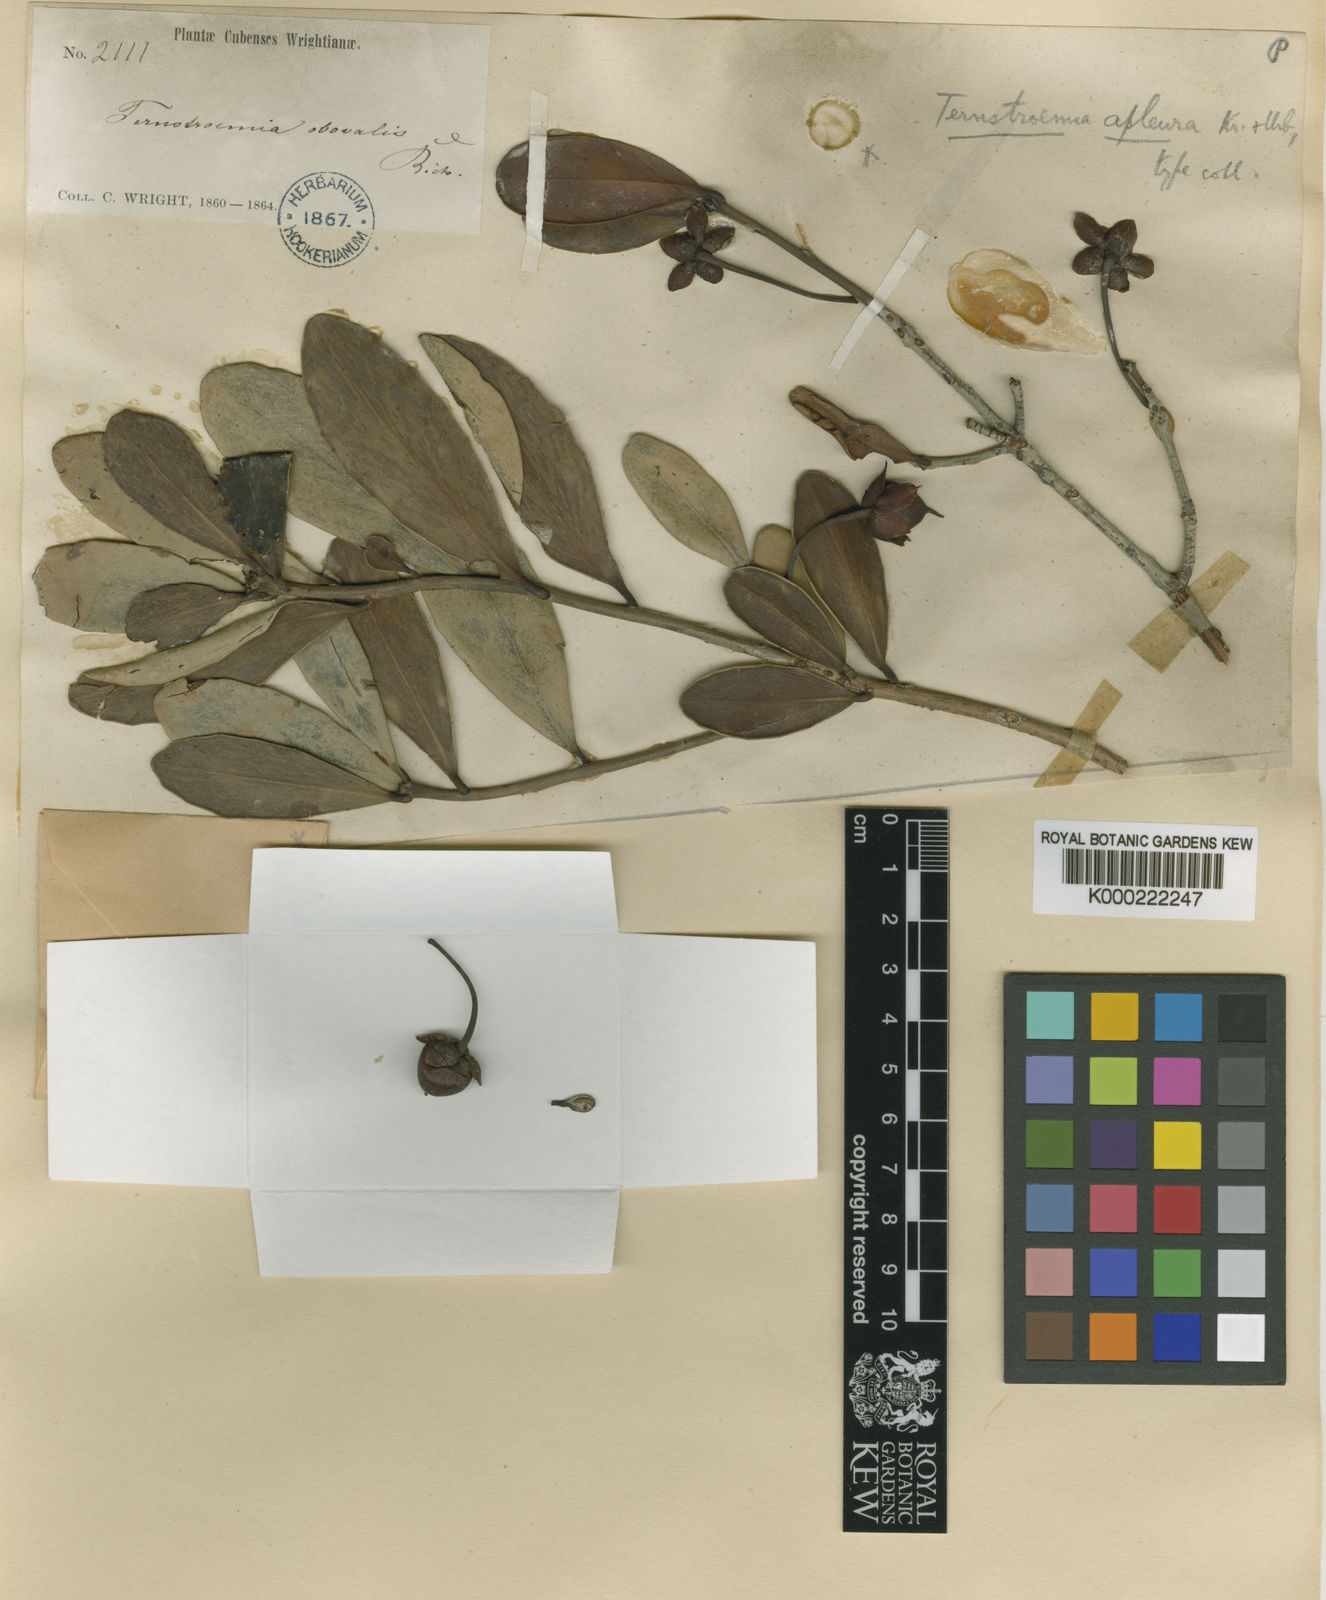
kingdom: Plantae
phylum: Tracheophyta
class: Magnoliopsida
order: Ericales
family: Pentaphylacaceae
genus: Ternstroemia
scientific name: Ternstroemia peduncularis
